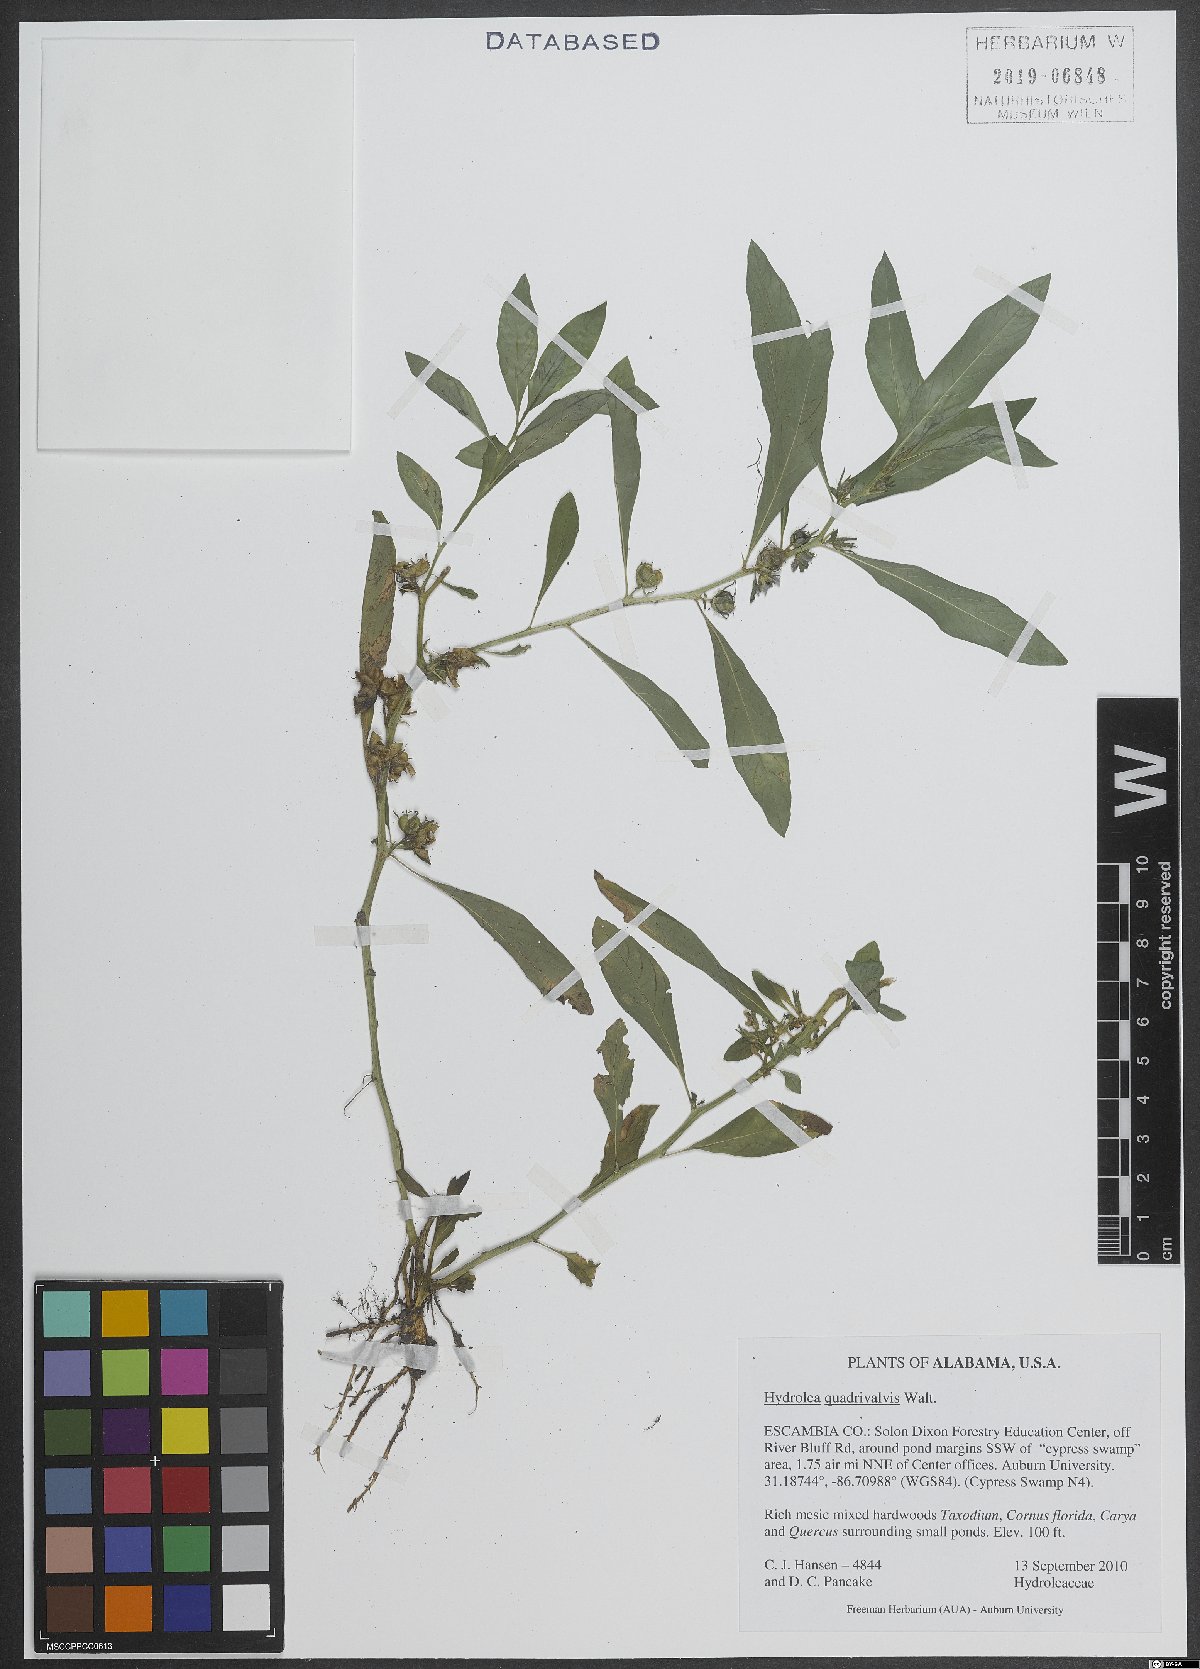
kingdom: Plantae
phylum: Tracheophyta
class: Magnoliopsida
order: Solanales
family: Hydroleaceae
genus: Hydrolea
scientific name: Hydrolea quadrivalvis
